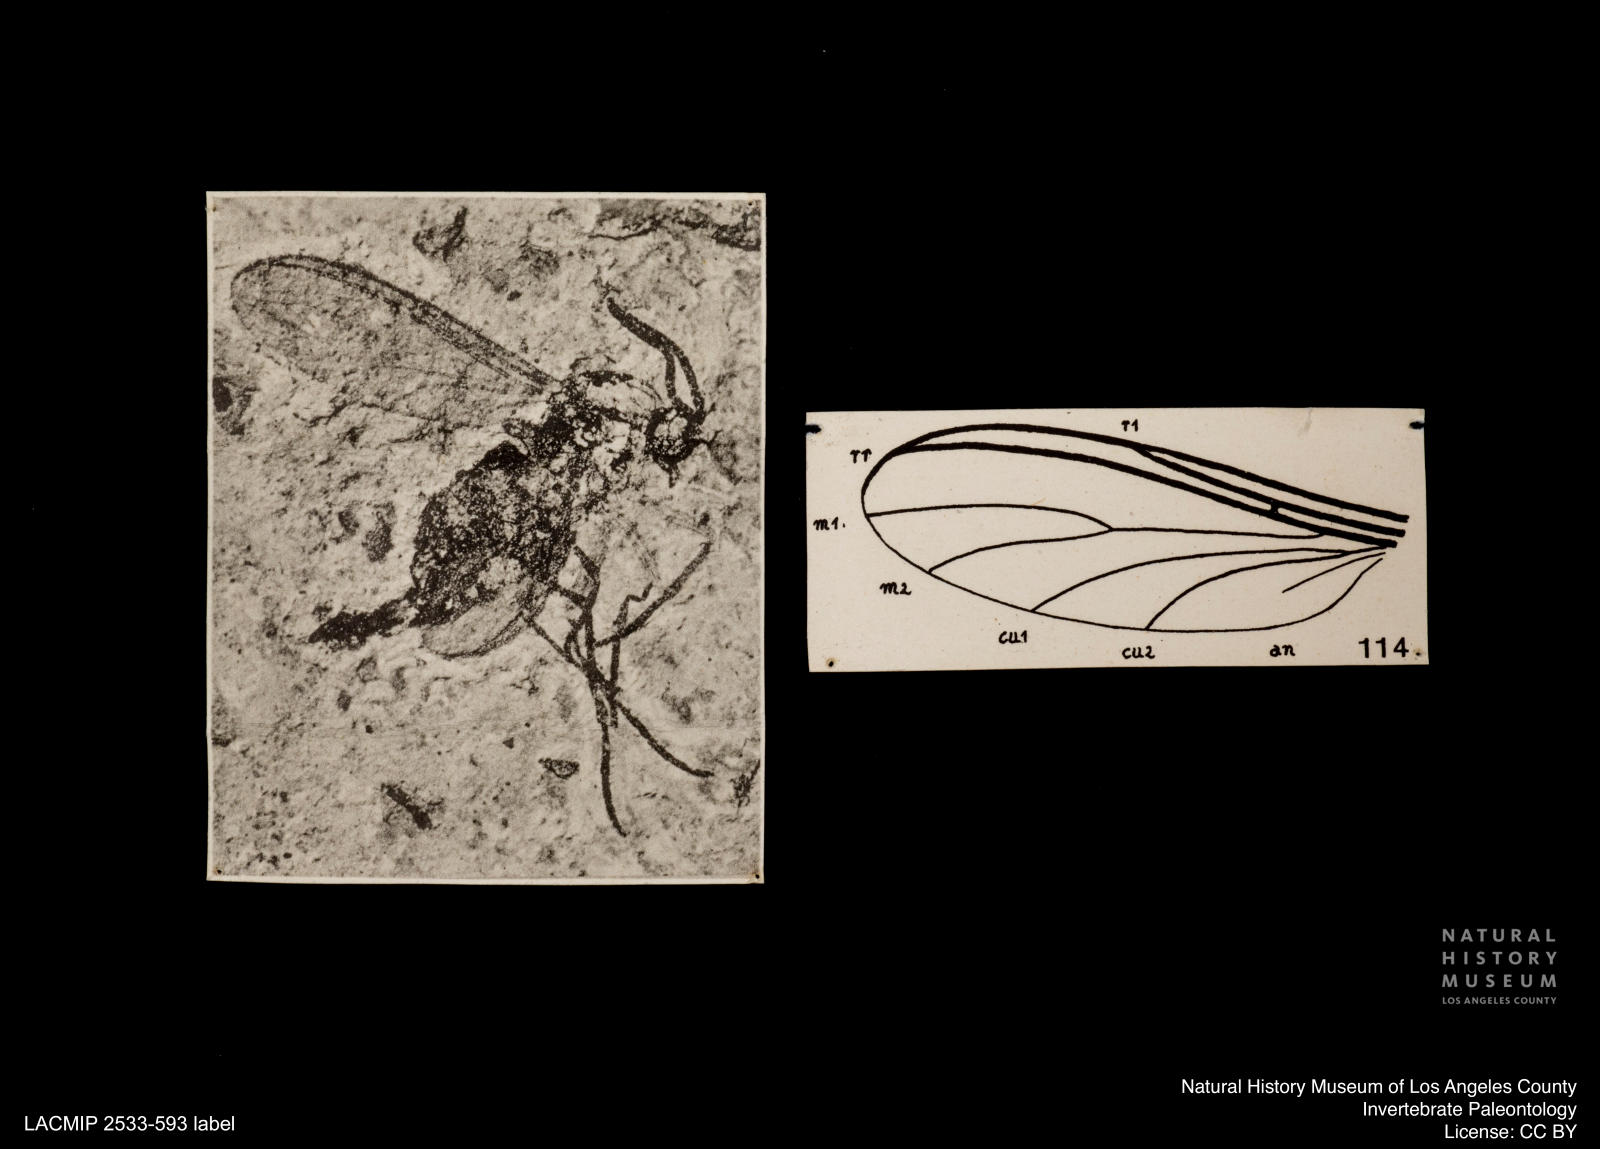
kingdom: Animalia
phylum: Arthropoda
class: Insecta
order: Diptera
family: Sciaridae
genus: Sciara
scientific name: Sciara melanopa
